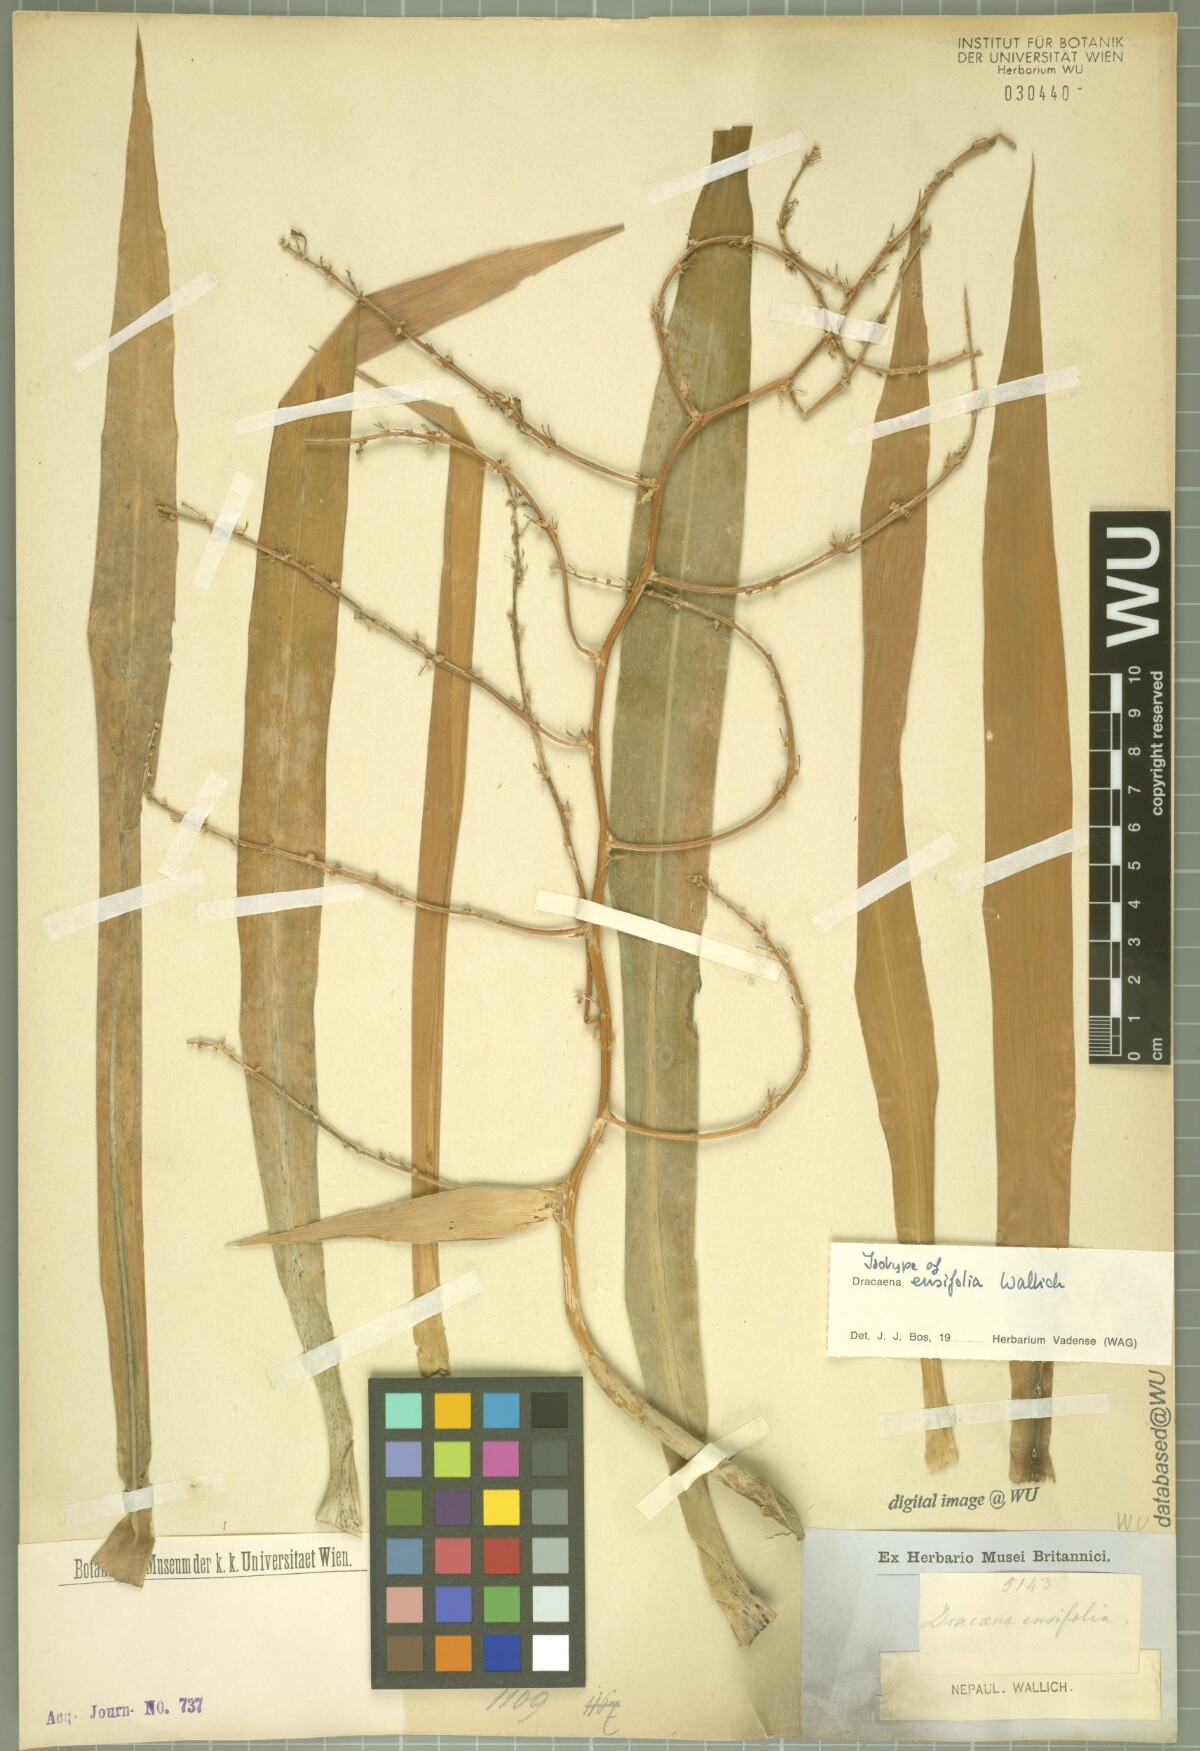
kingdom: Plantae
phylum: Tracheophyta
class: Liliopsida
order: Asparagales
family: Asparagaceae
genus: Dracaena
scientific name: Dracaena ensifolia
